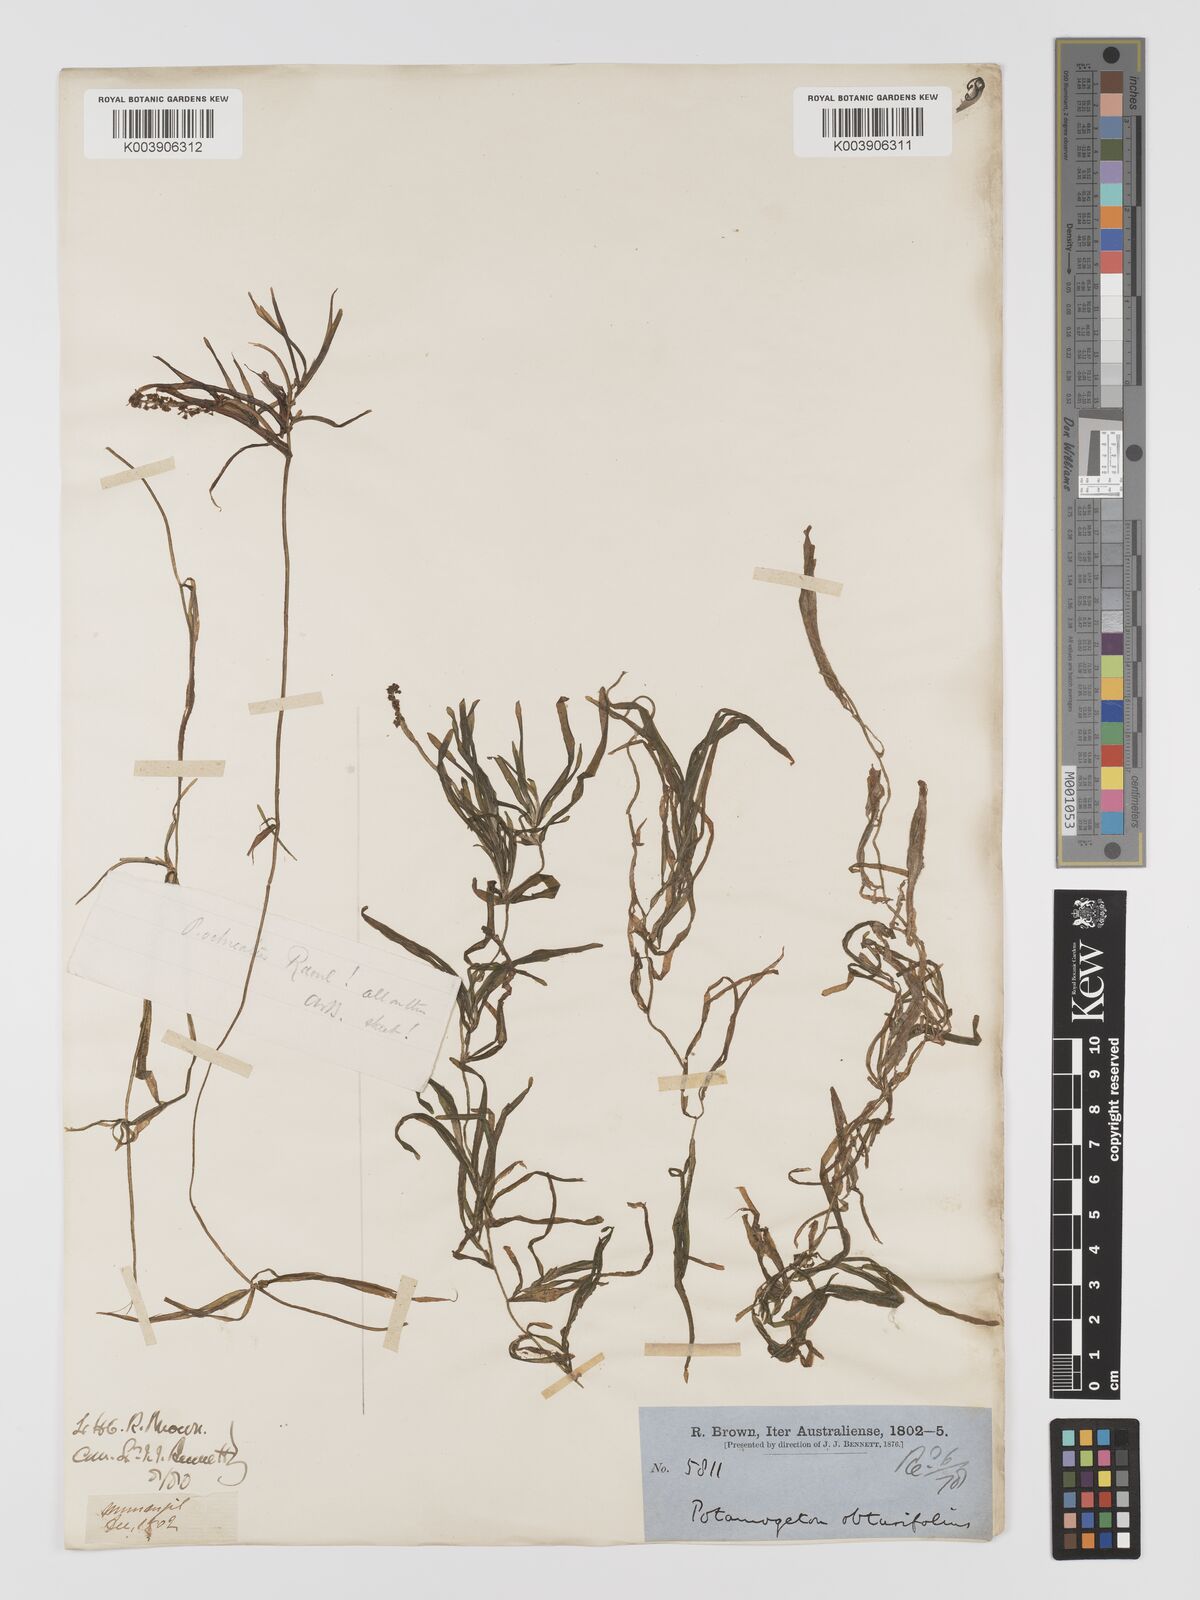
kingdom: Plantae
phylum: Tracheophyta
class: Liliopsida
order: Alismatales
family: Potamogetonaceae
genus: Potamogeton
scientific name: Potamogeton ochreatus
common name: Blunt pondweed
